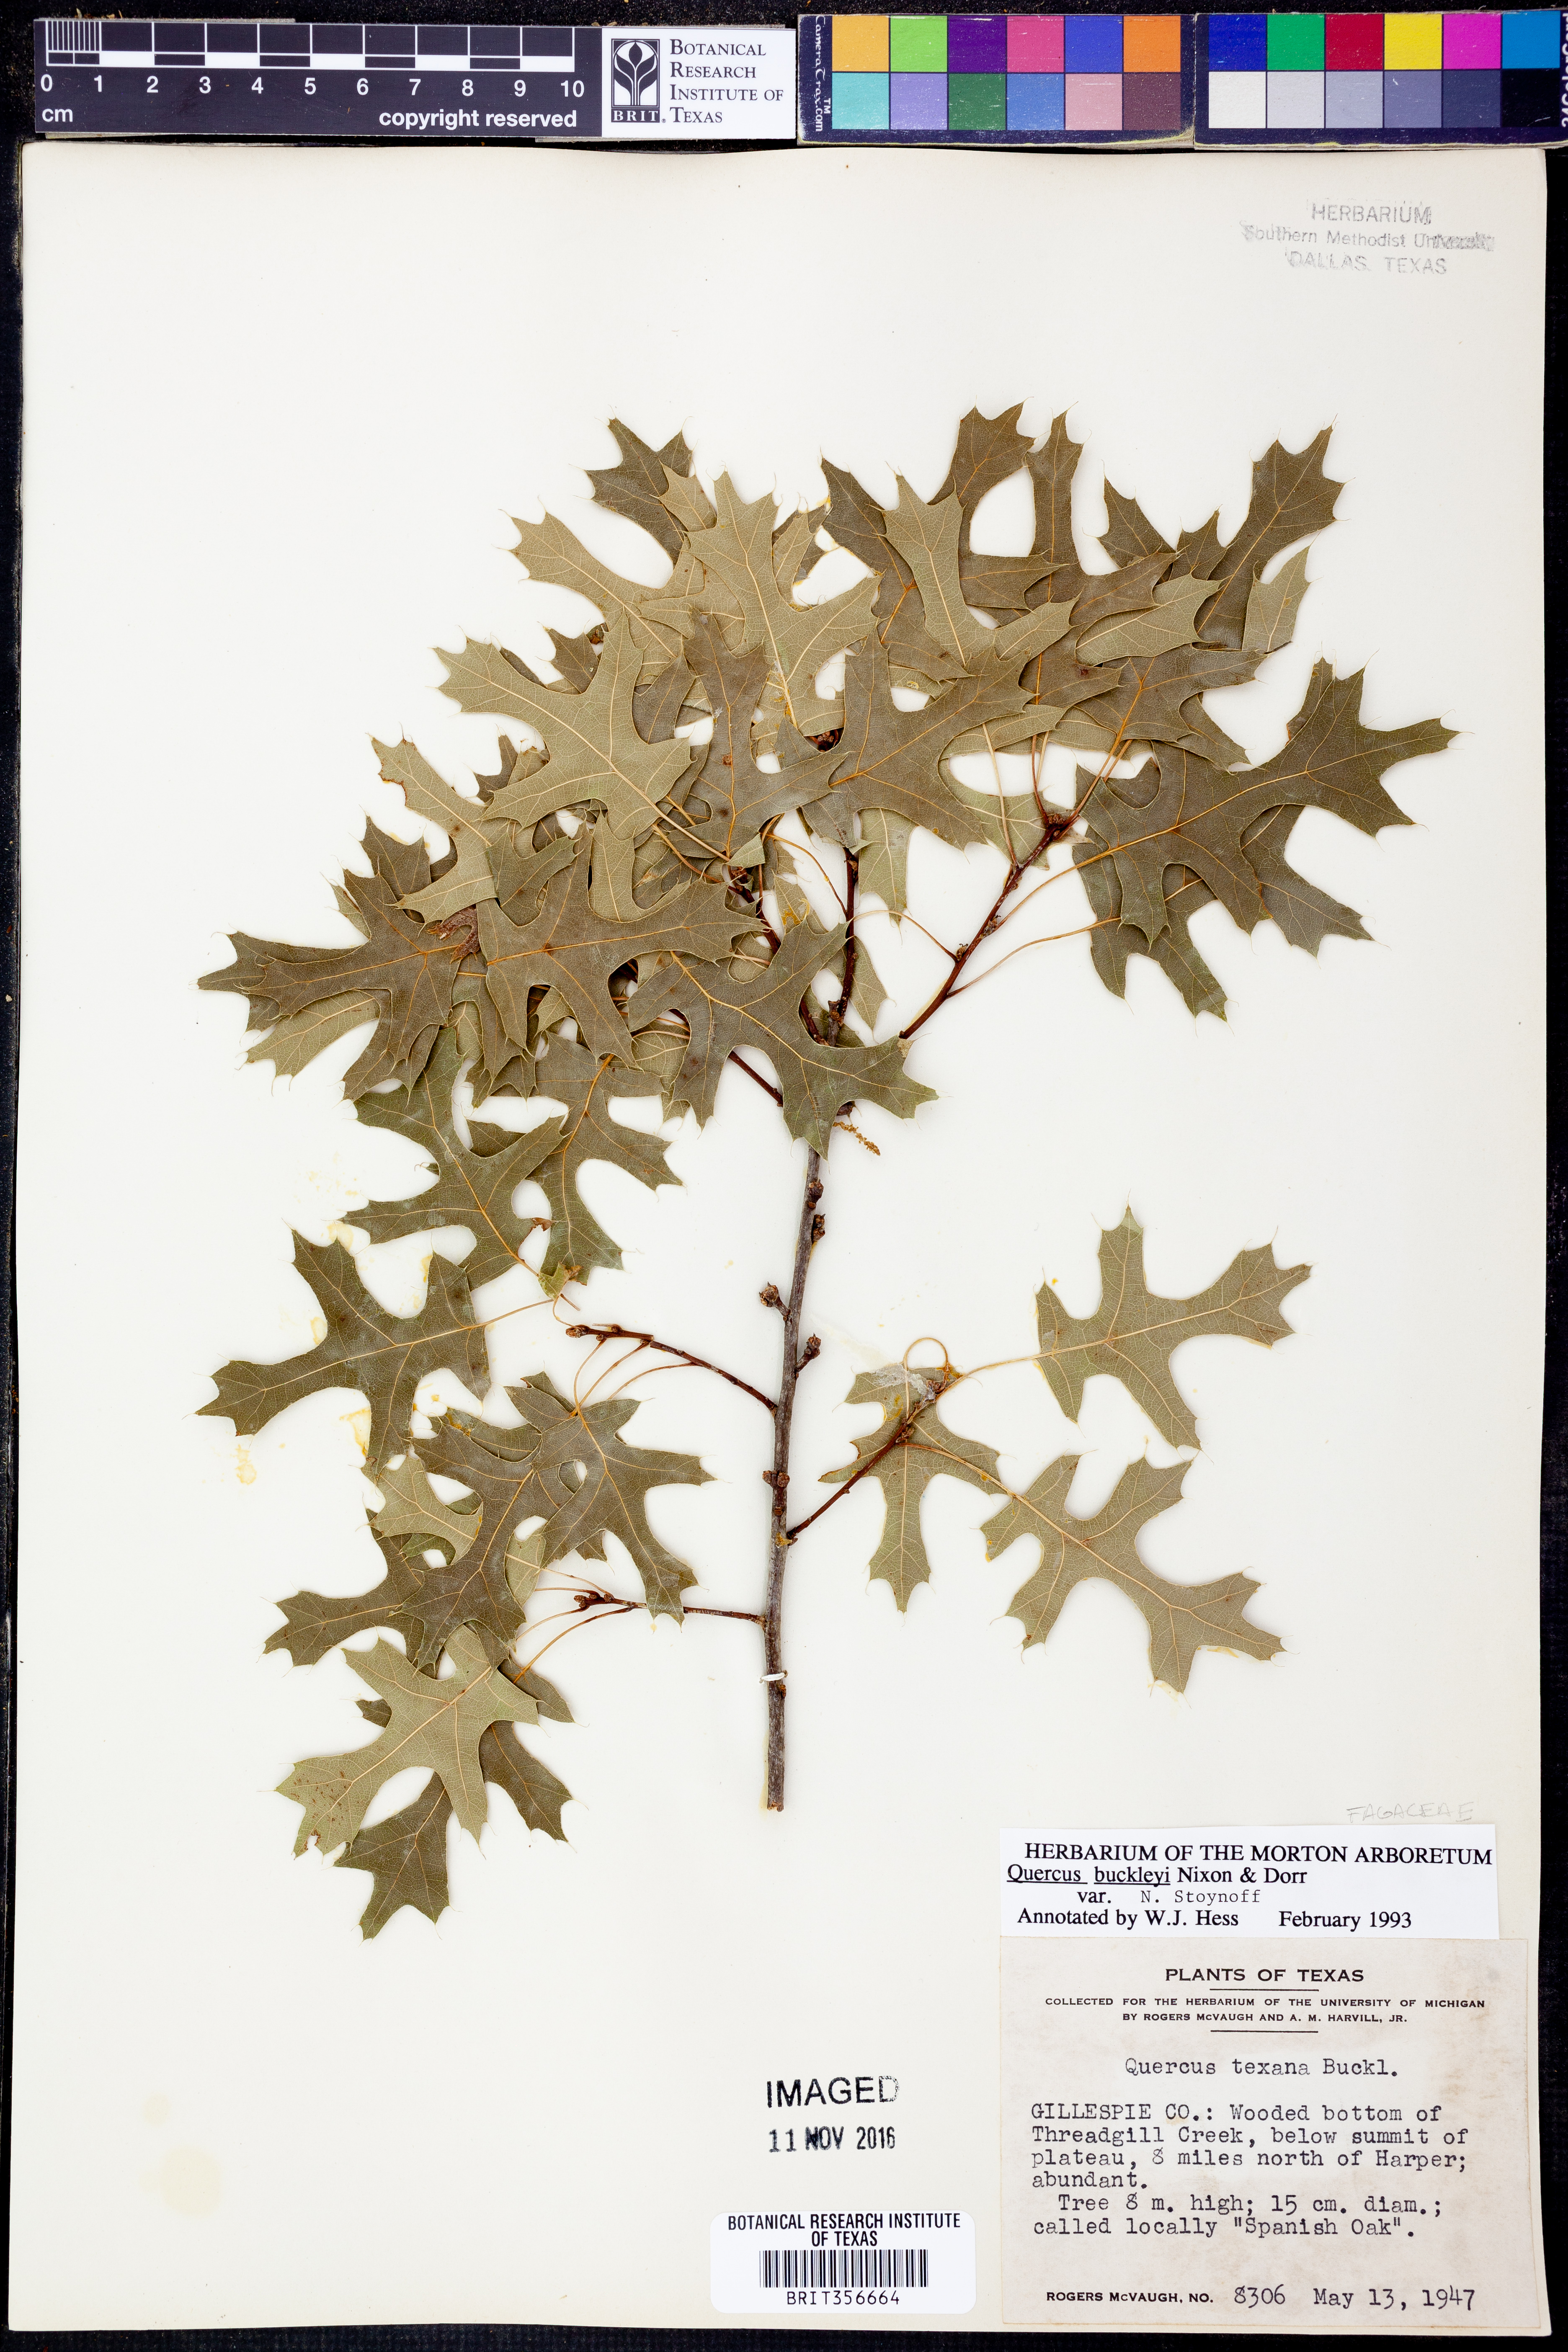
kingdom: Plantae
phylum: Tracheophyta
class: Magnoliopsida
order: Fagales
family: Fagaceae
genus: Quercus
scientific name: Quercus buckleyi
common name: Buckley oak
